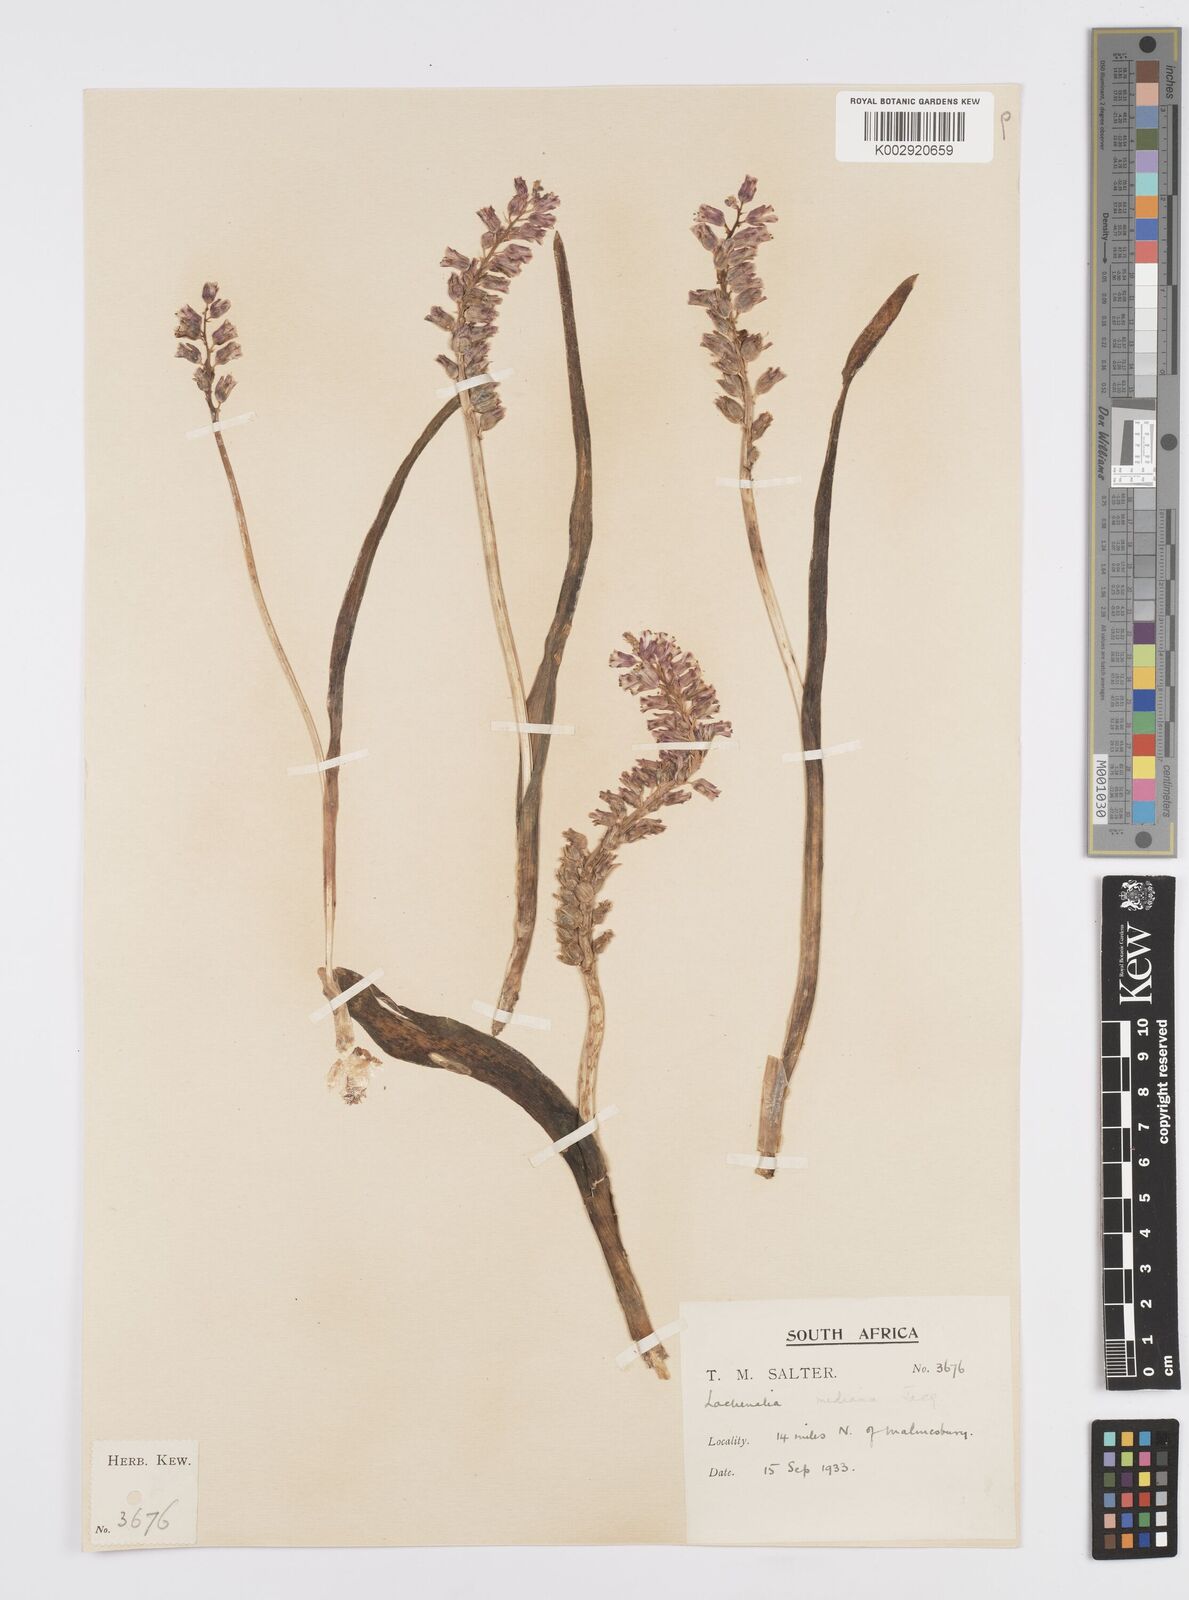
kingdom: Plantae
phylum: Tracheophyta
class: Liliopsida
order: Asparagales
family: Asparagaceae
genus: Lachenalia
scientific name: Lachenalia mediana
